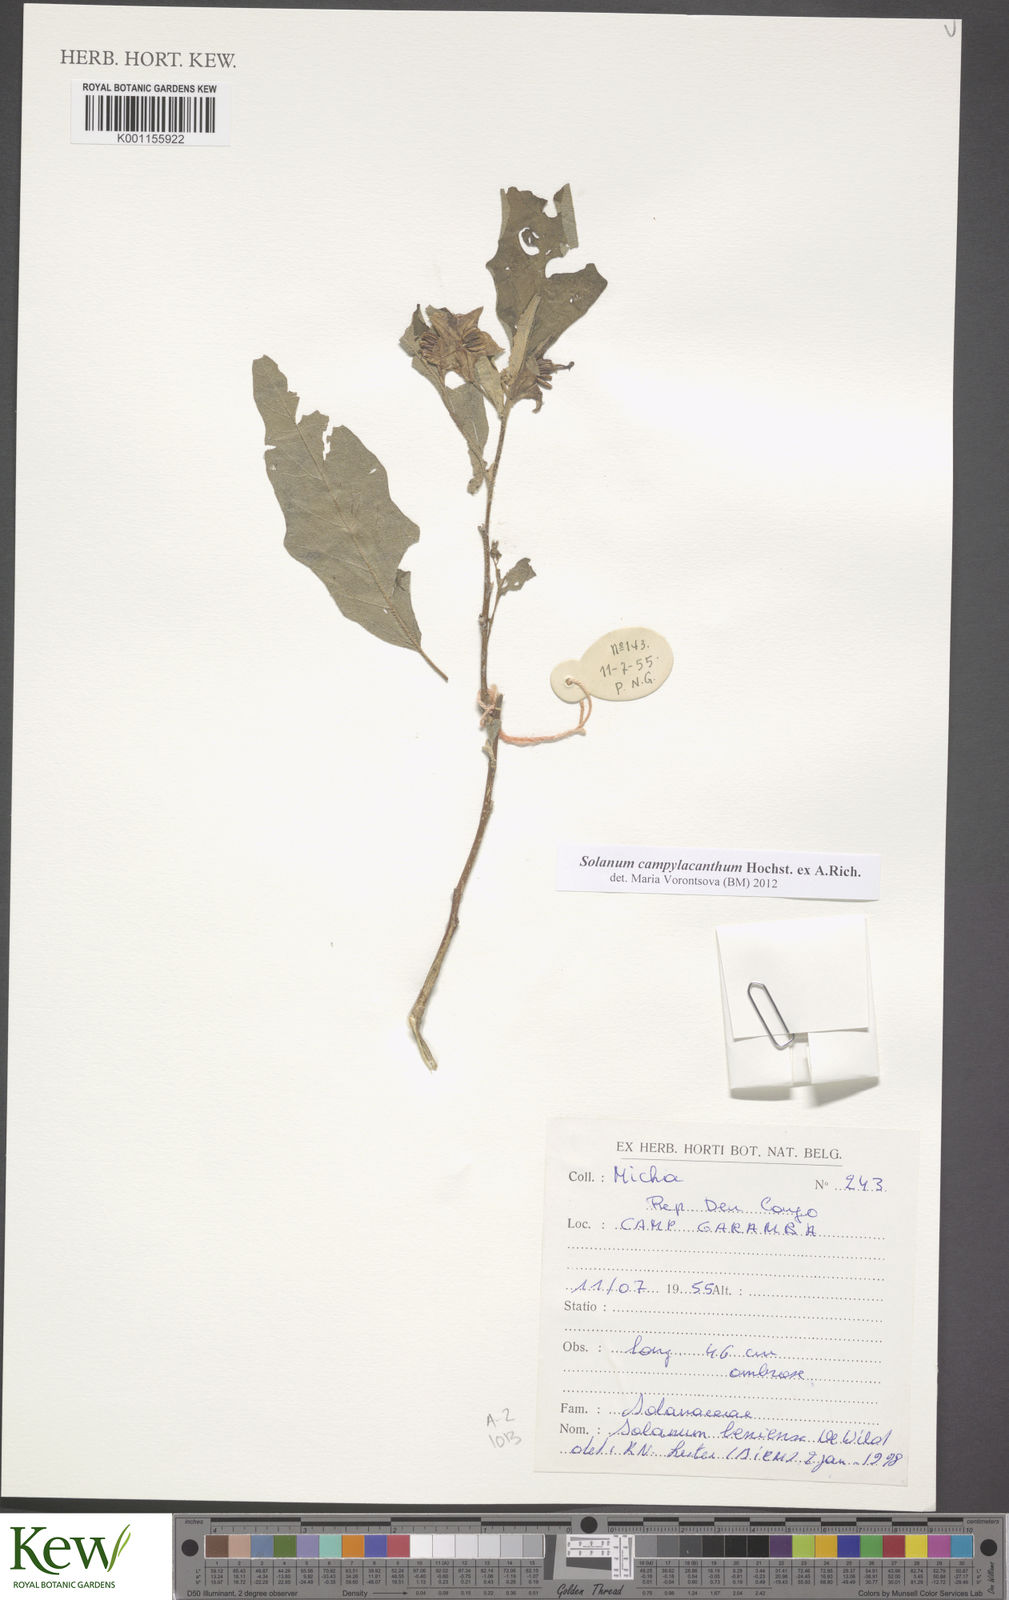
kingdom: Plantae
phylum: Tracheophyta
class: Magnoliopsida
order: Solanales
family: Solanaceae
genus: Solanum
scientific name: Solanum campylacanthum
